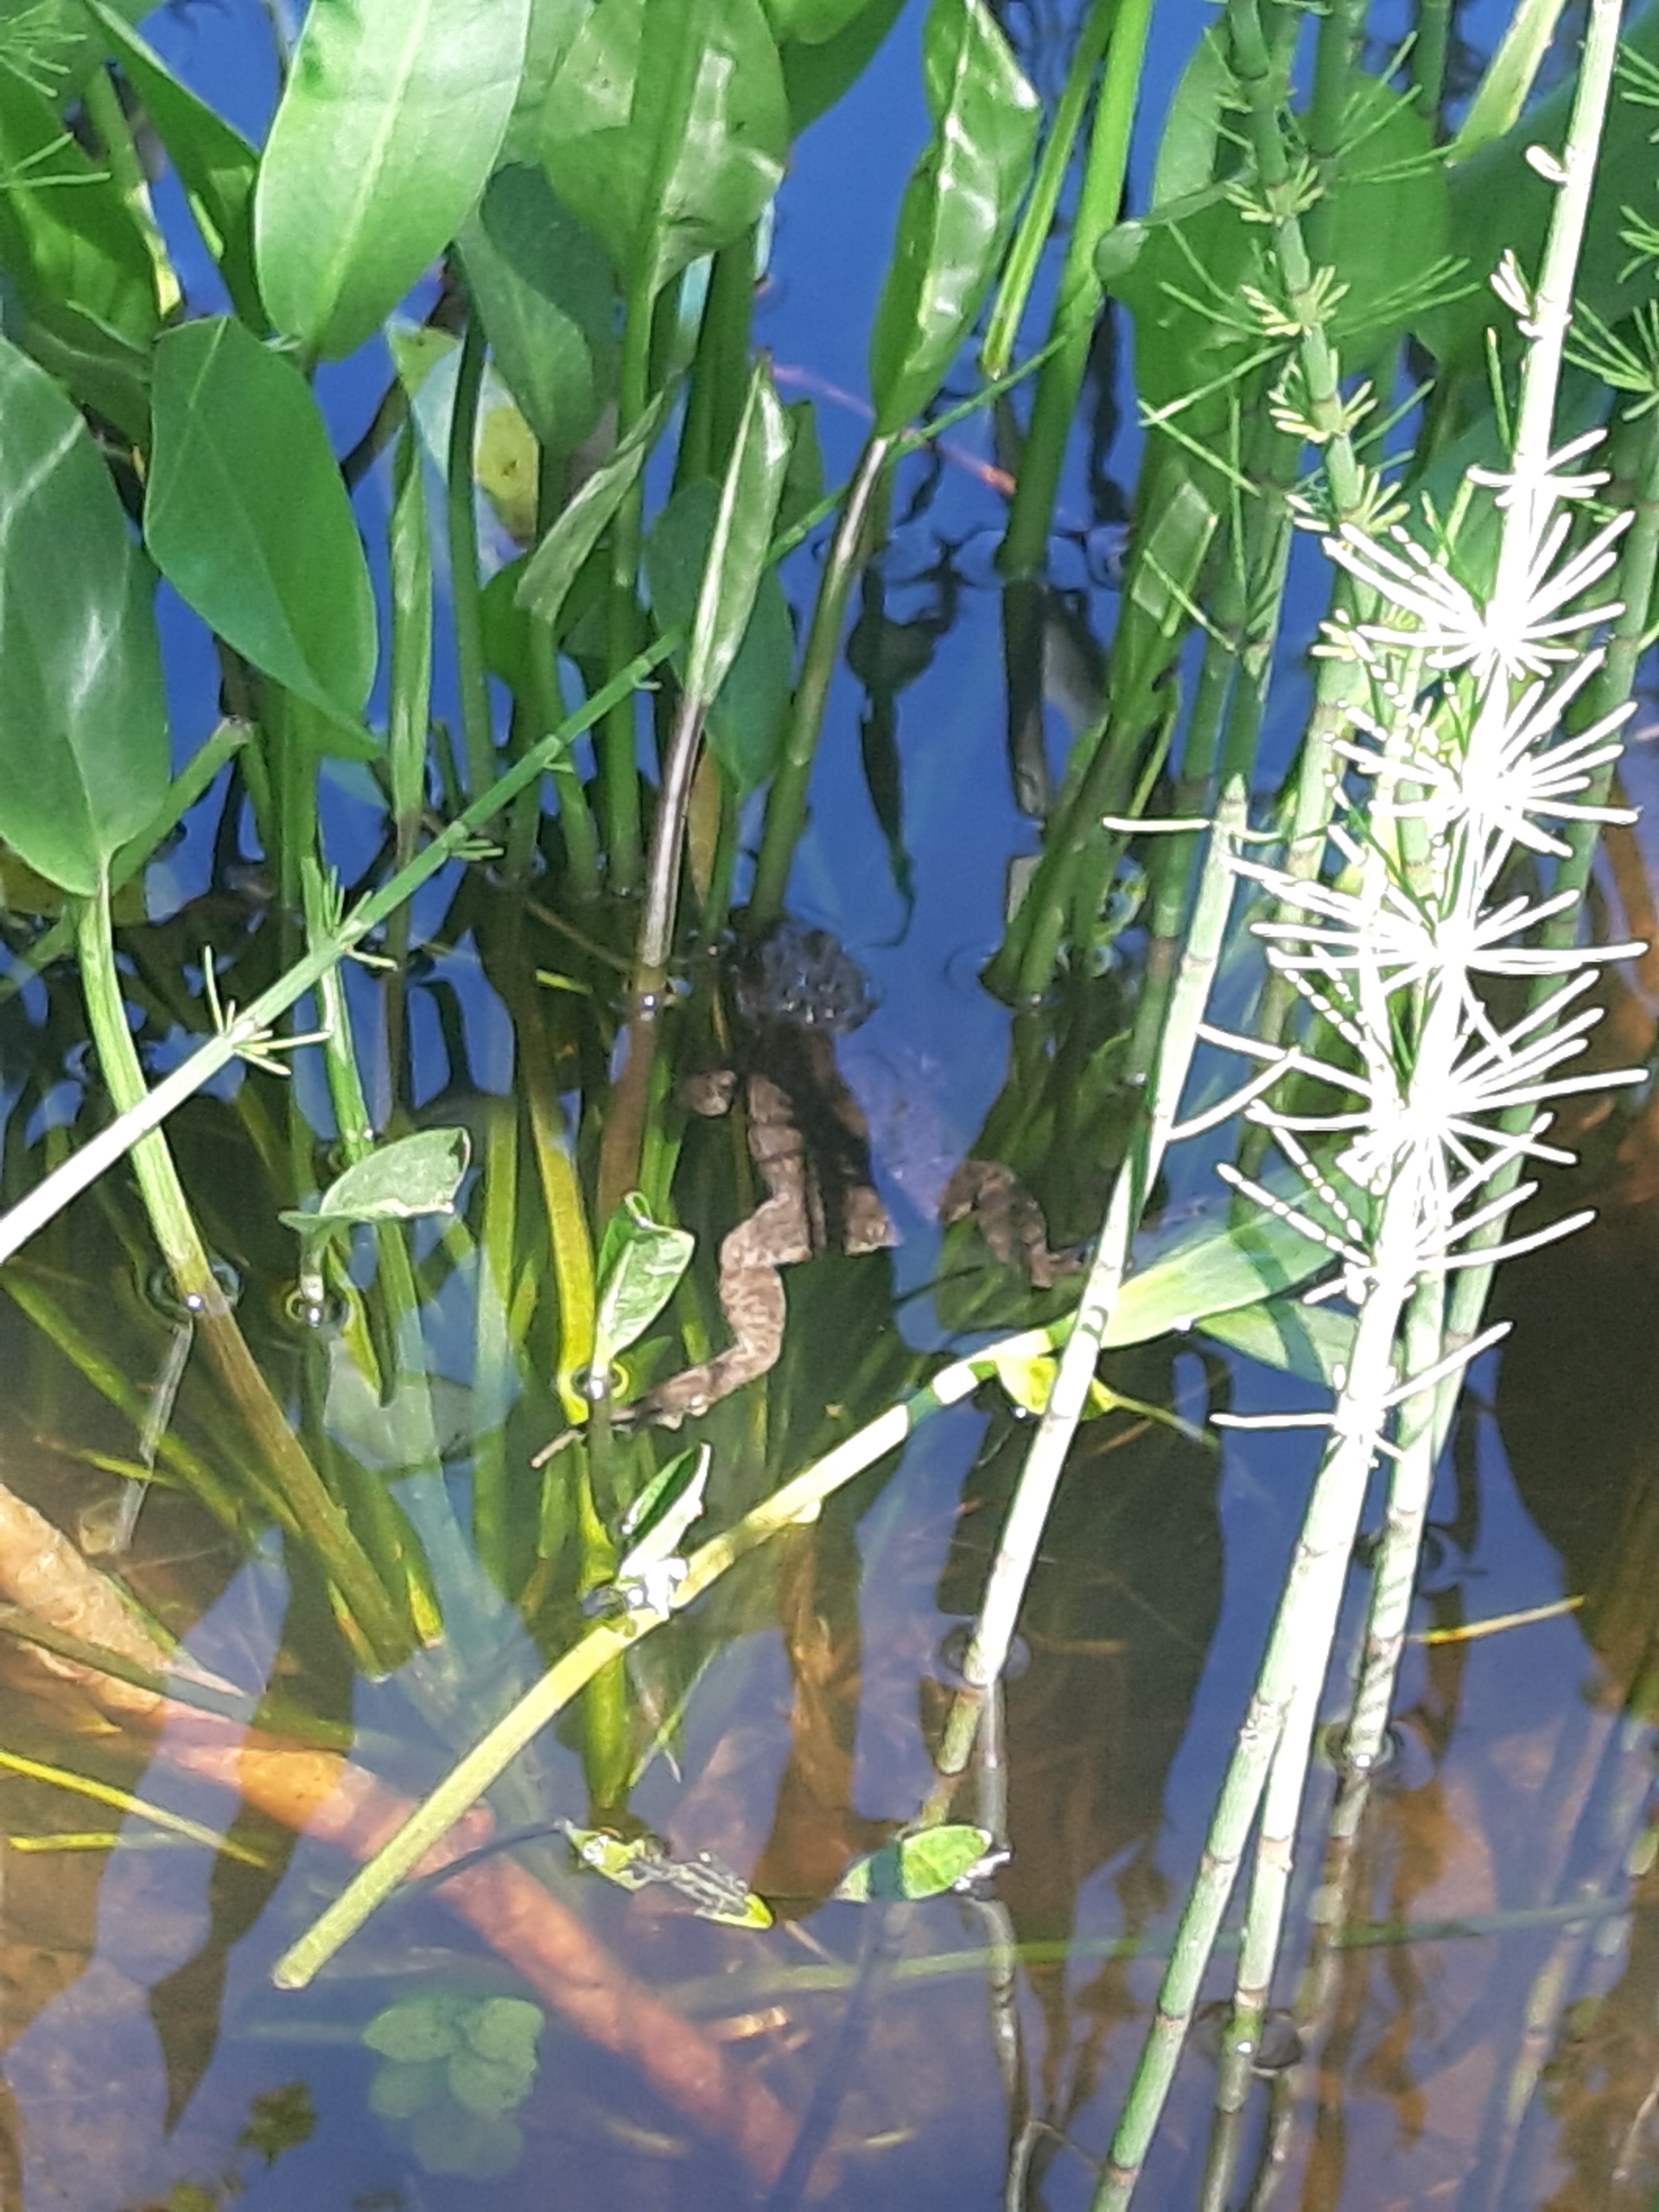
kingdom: Animalia
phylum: Chordata
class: Amphibia
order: Anura
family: Bufonidae
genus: Bufo
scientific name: Bufo bufo
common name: Skrubtudse
